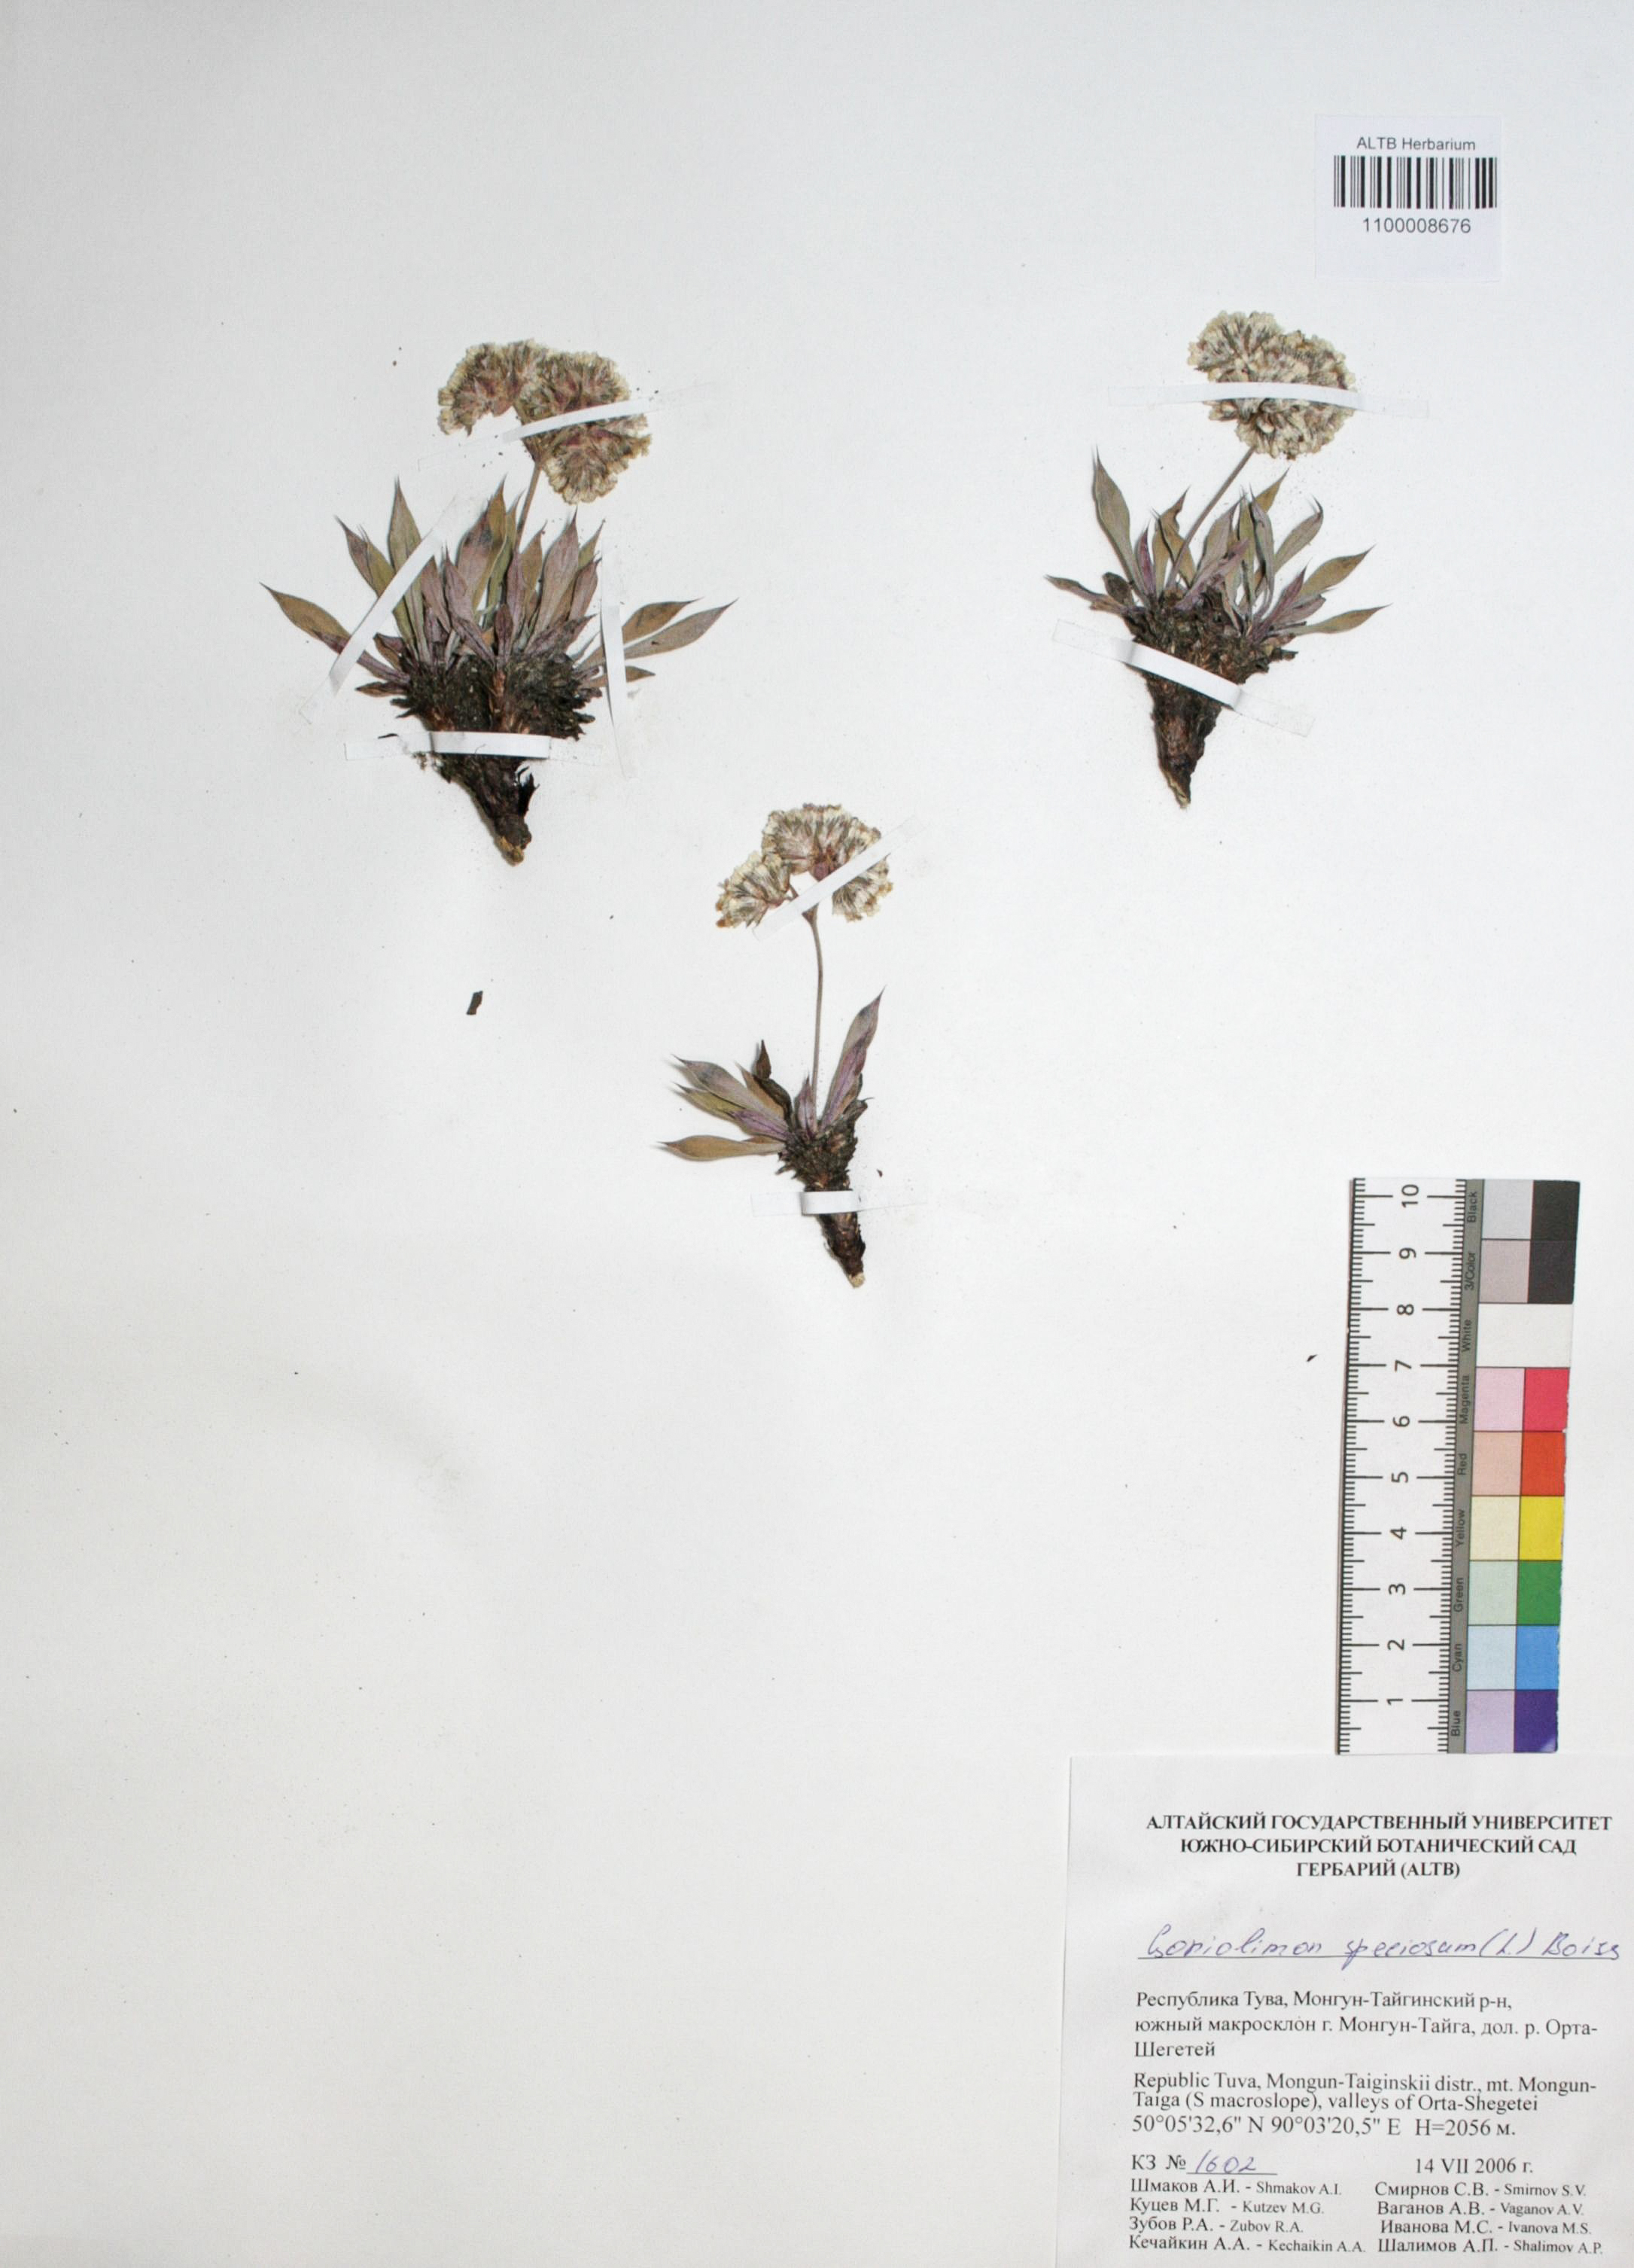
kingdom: Plantae
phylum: Tracheophyta
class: Magnoliopsida
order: Caryophyllales
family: Plumbaginaceae
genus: Goniolimon
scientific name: Goniolimon speciosum
